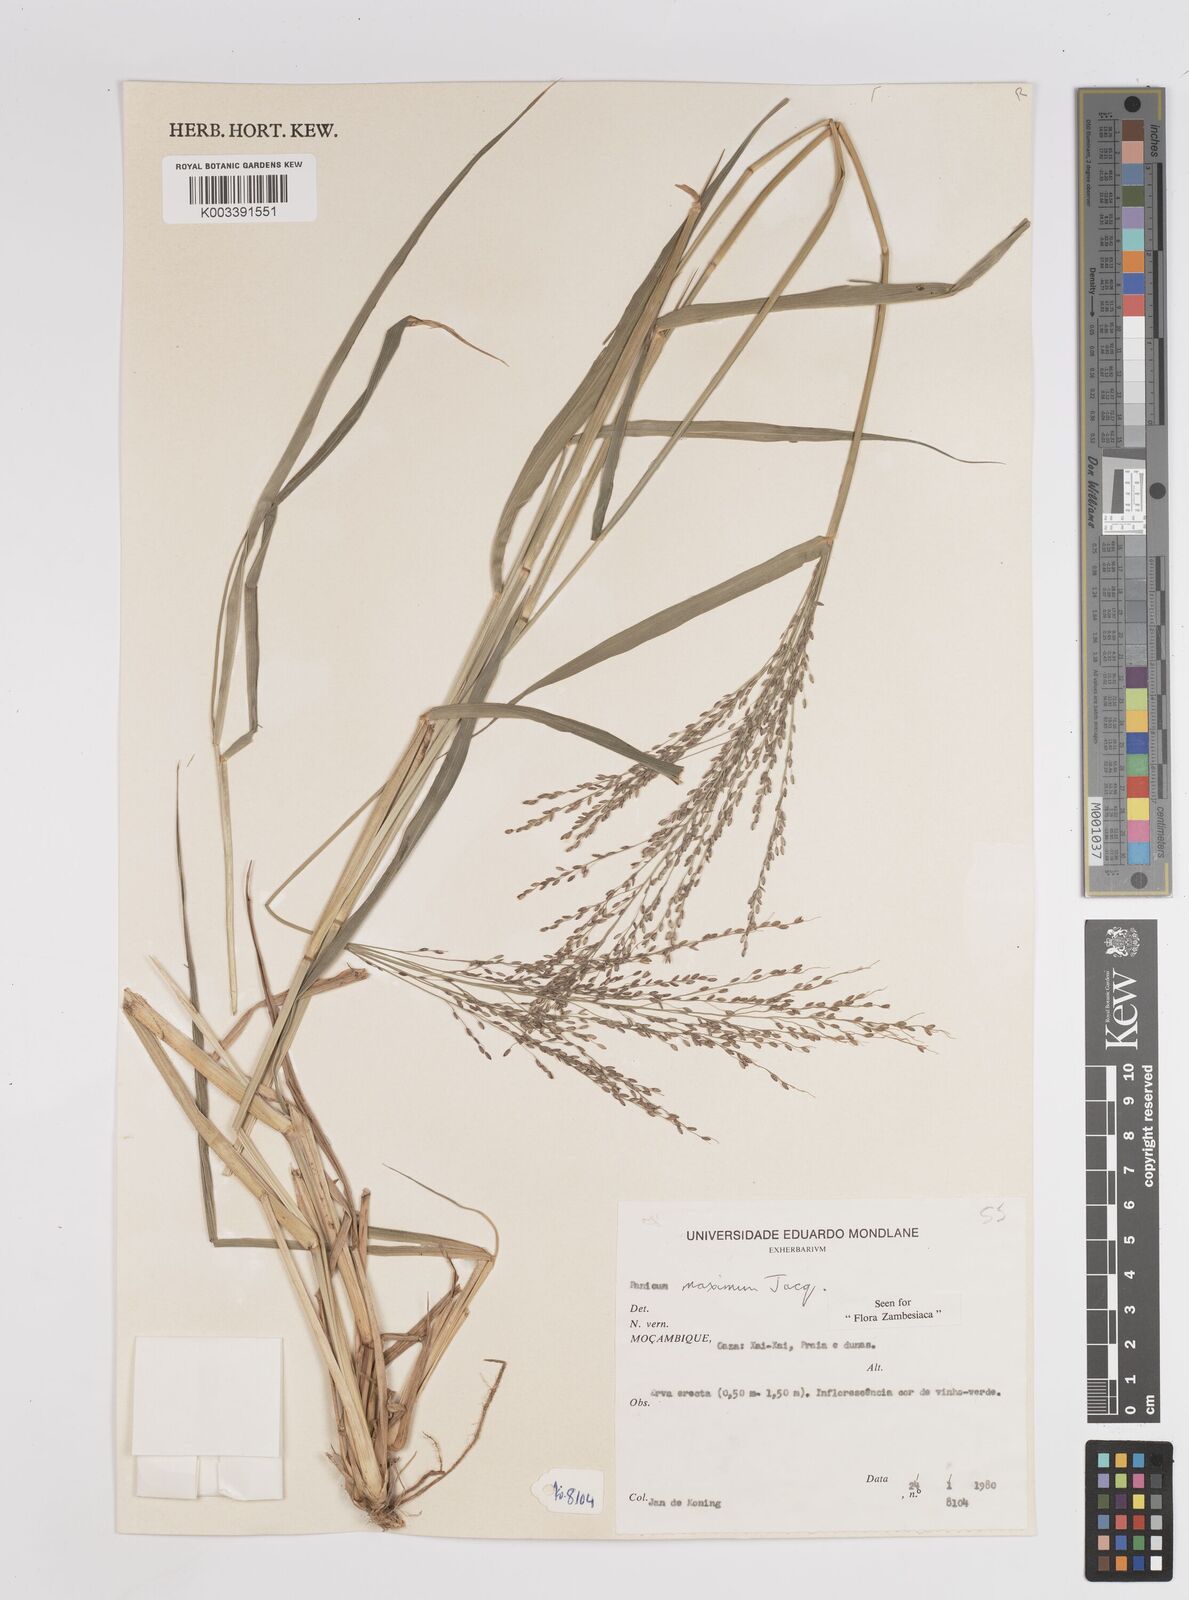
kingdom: Plantae
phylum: Tracheophyta
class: Liliopsida
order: Poales
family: Poaceae
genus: Megathyrsus
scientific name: Megathyrsus maximus
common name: Guineagrass
